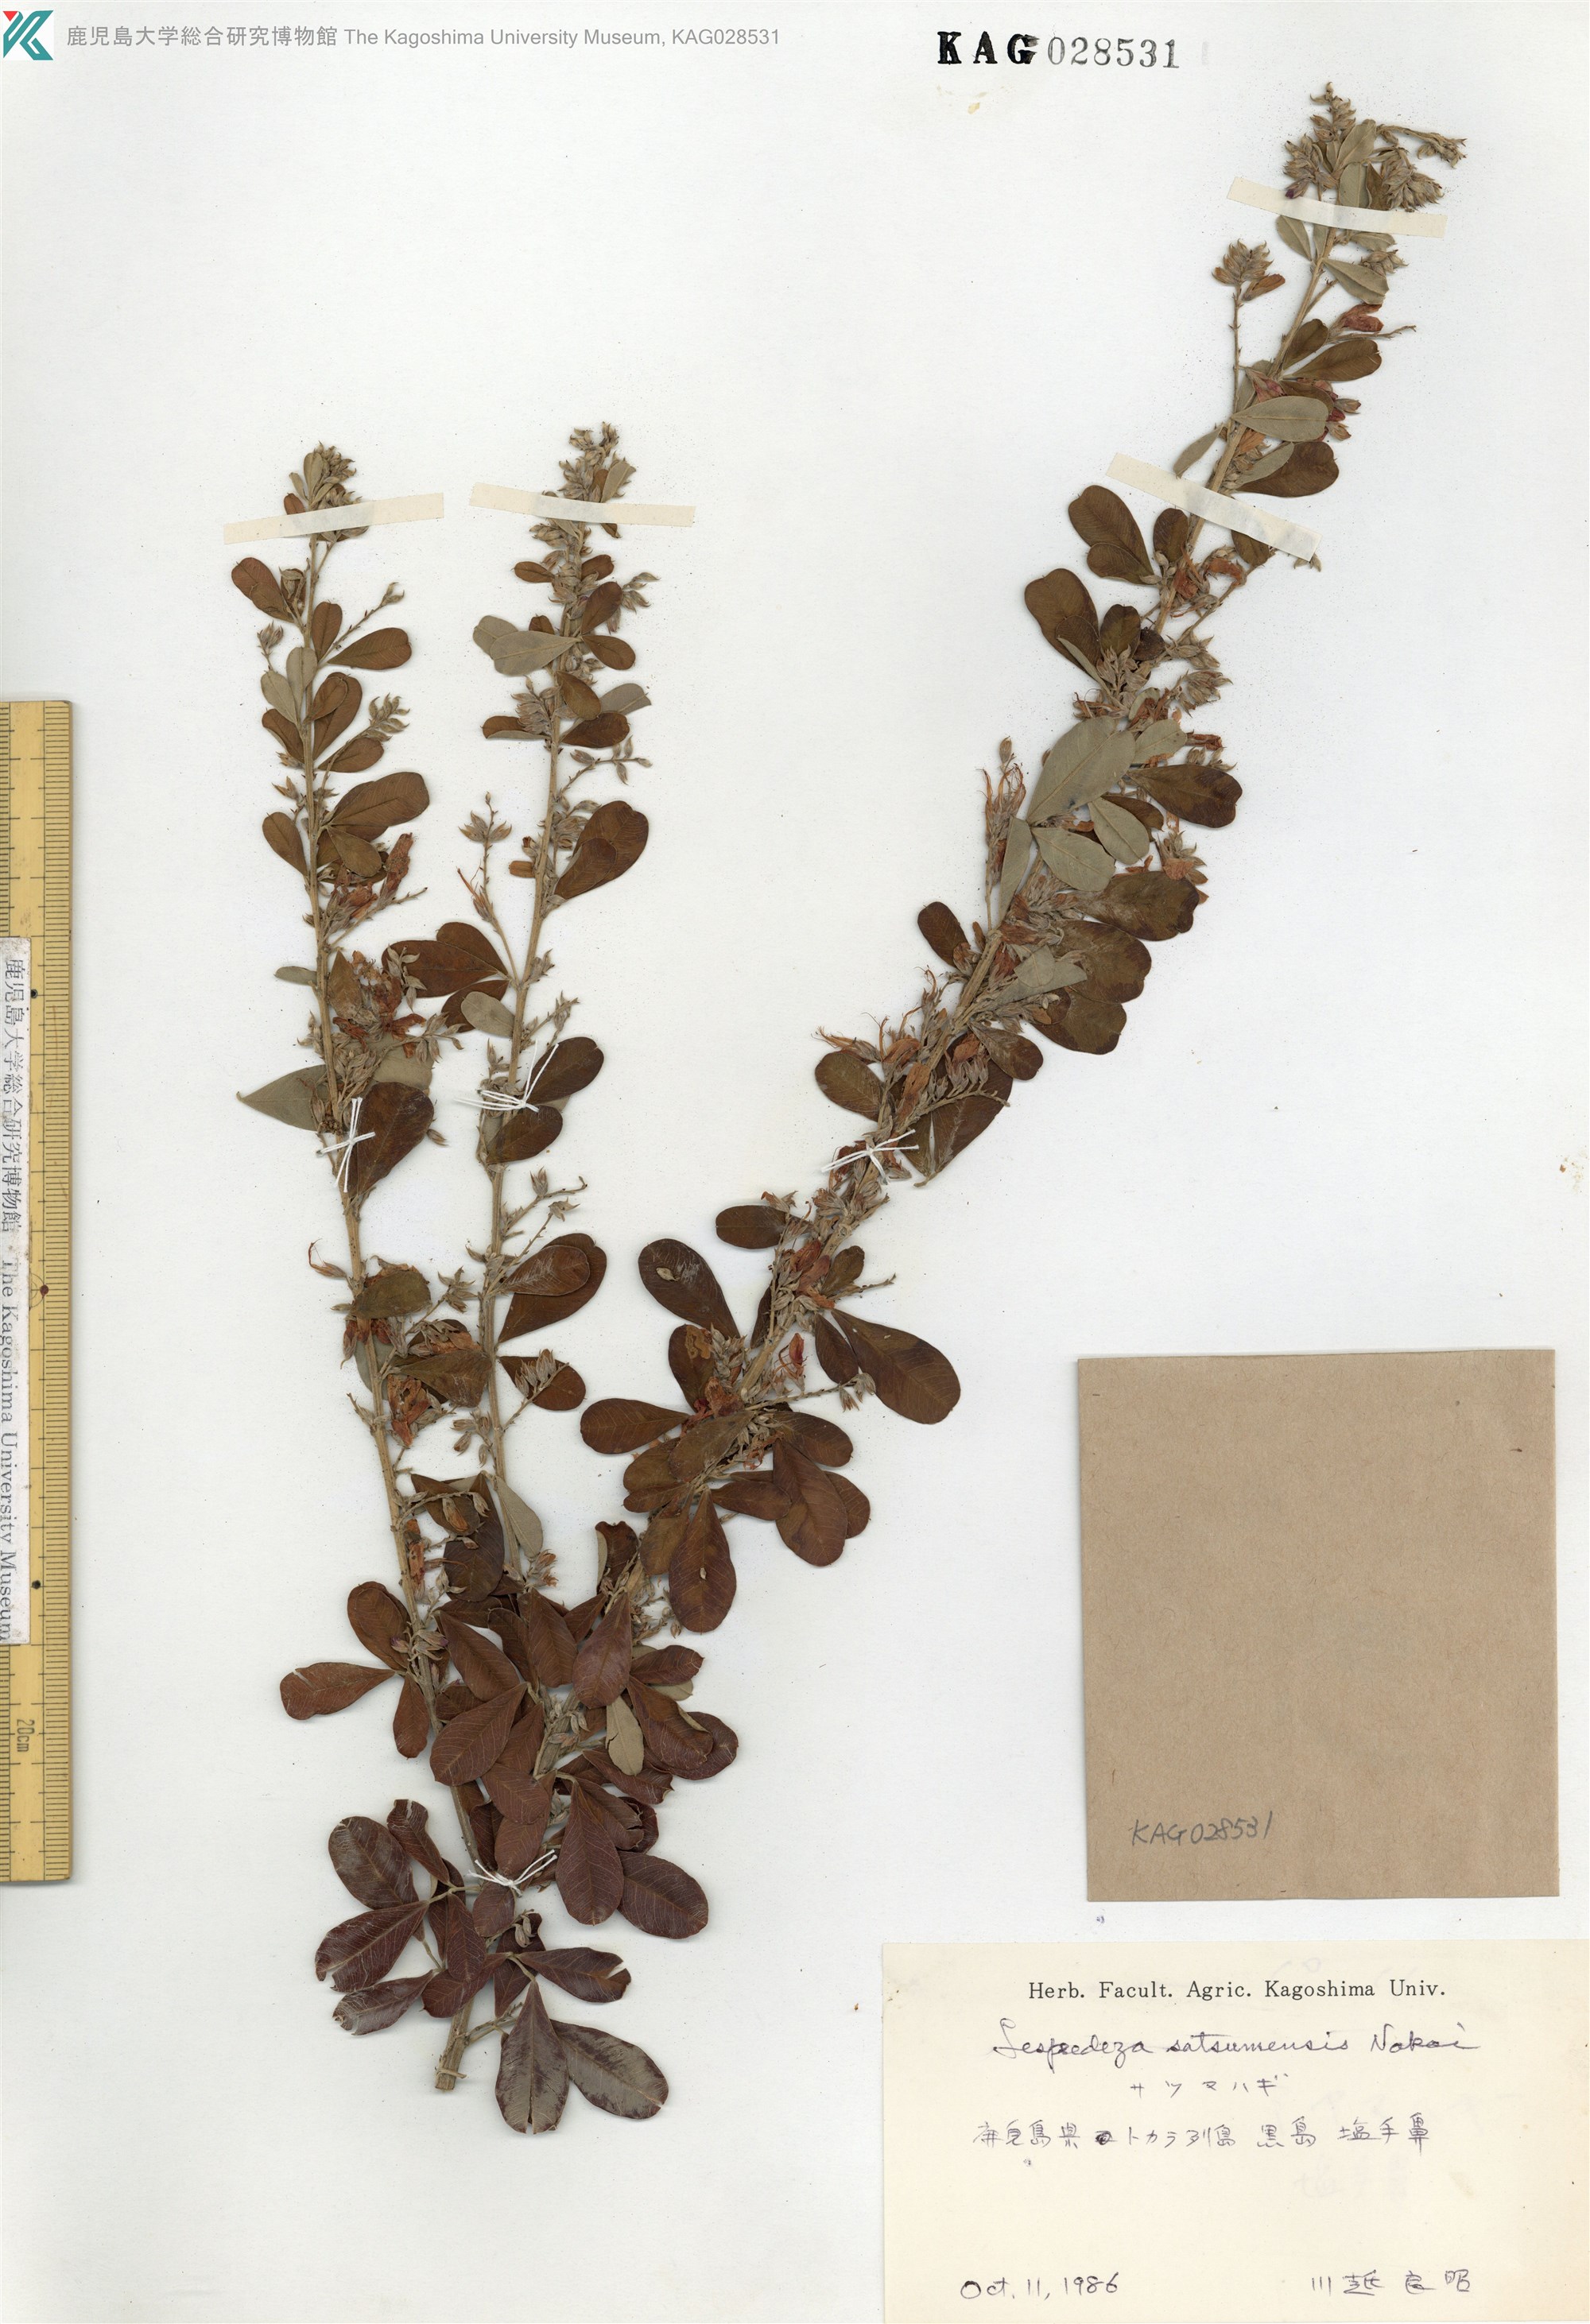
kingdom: Plantae
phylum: Tracheophyta
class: Magnoliopsida
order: Fabales
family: Fabaceae
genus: Lespedeza
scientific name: Lespedeza thunbergii
